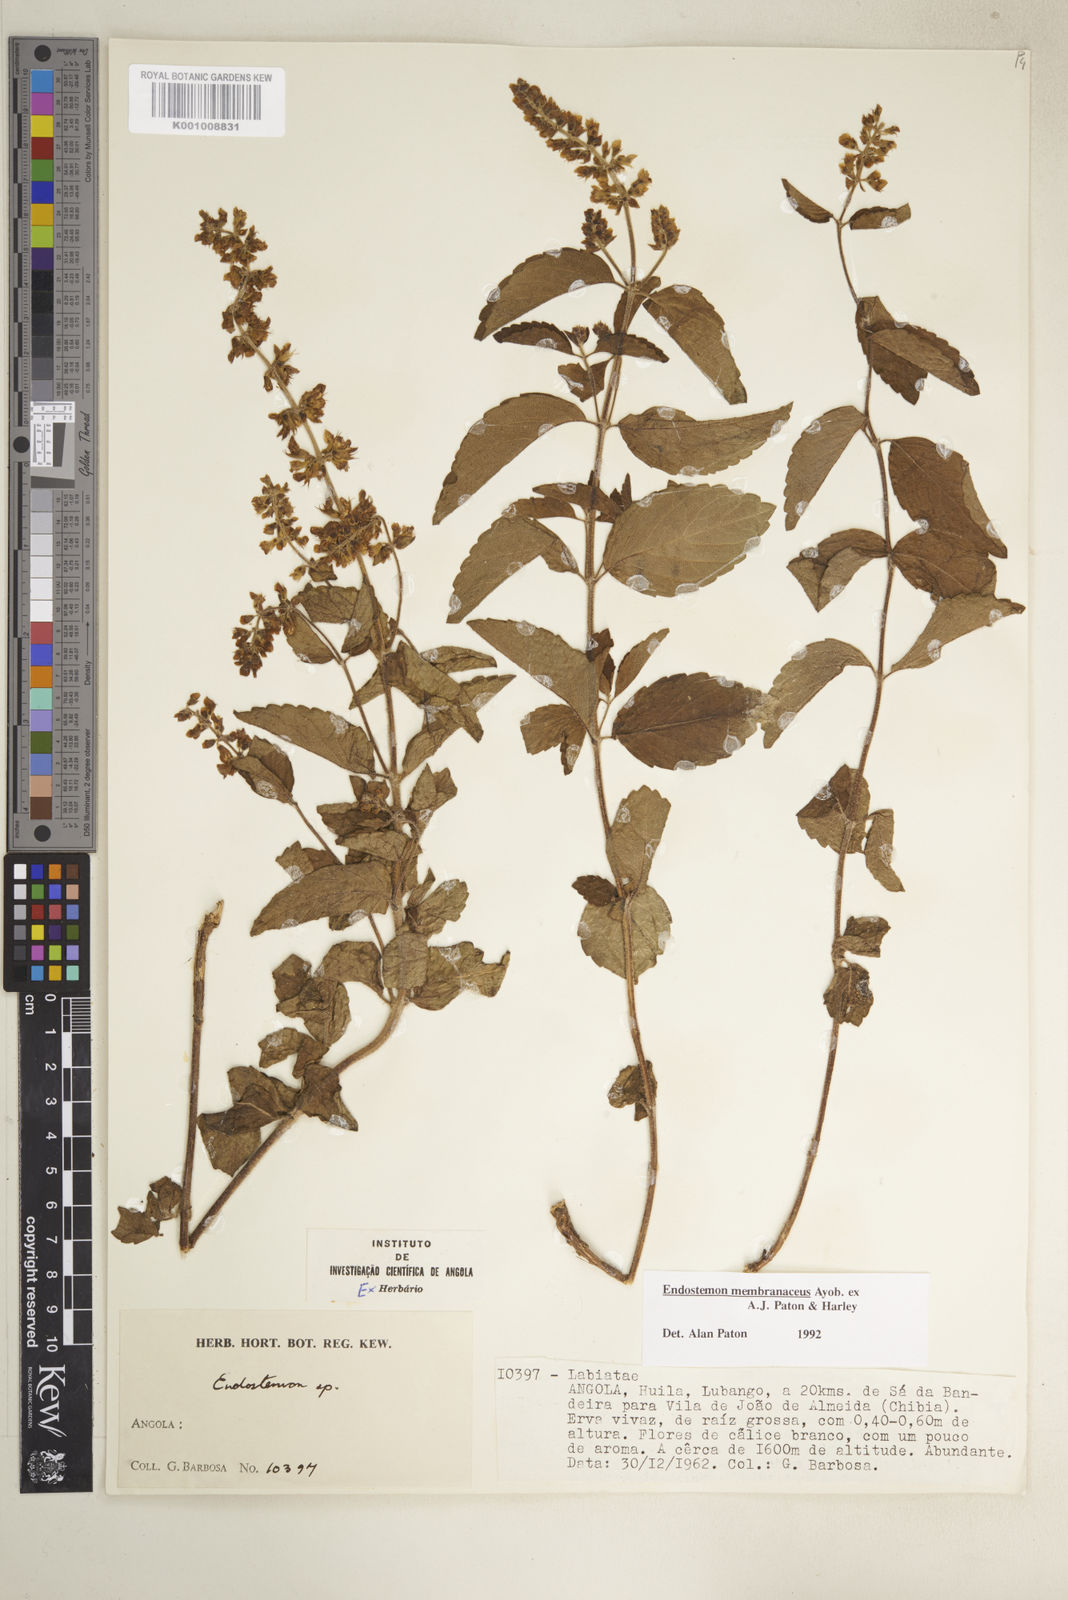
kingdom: Plantae
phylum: Tracheophyta
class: Magnoliopsida
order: Lamiales
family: Lamiaceae
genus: Endostemon
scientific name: Endostemon membranaceus
